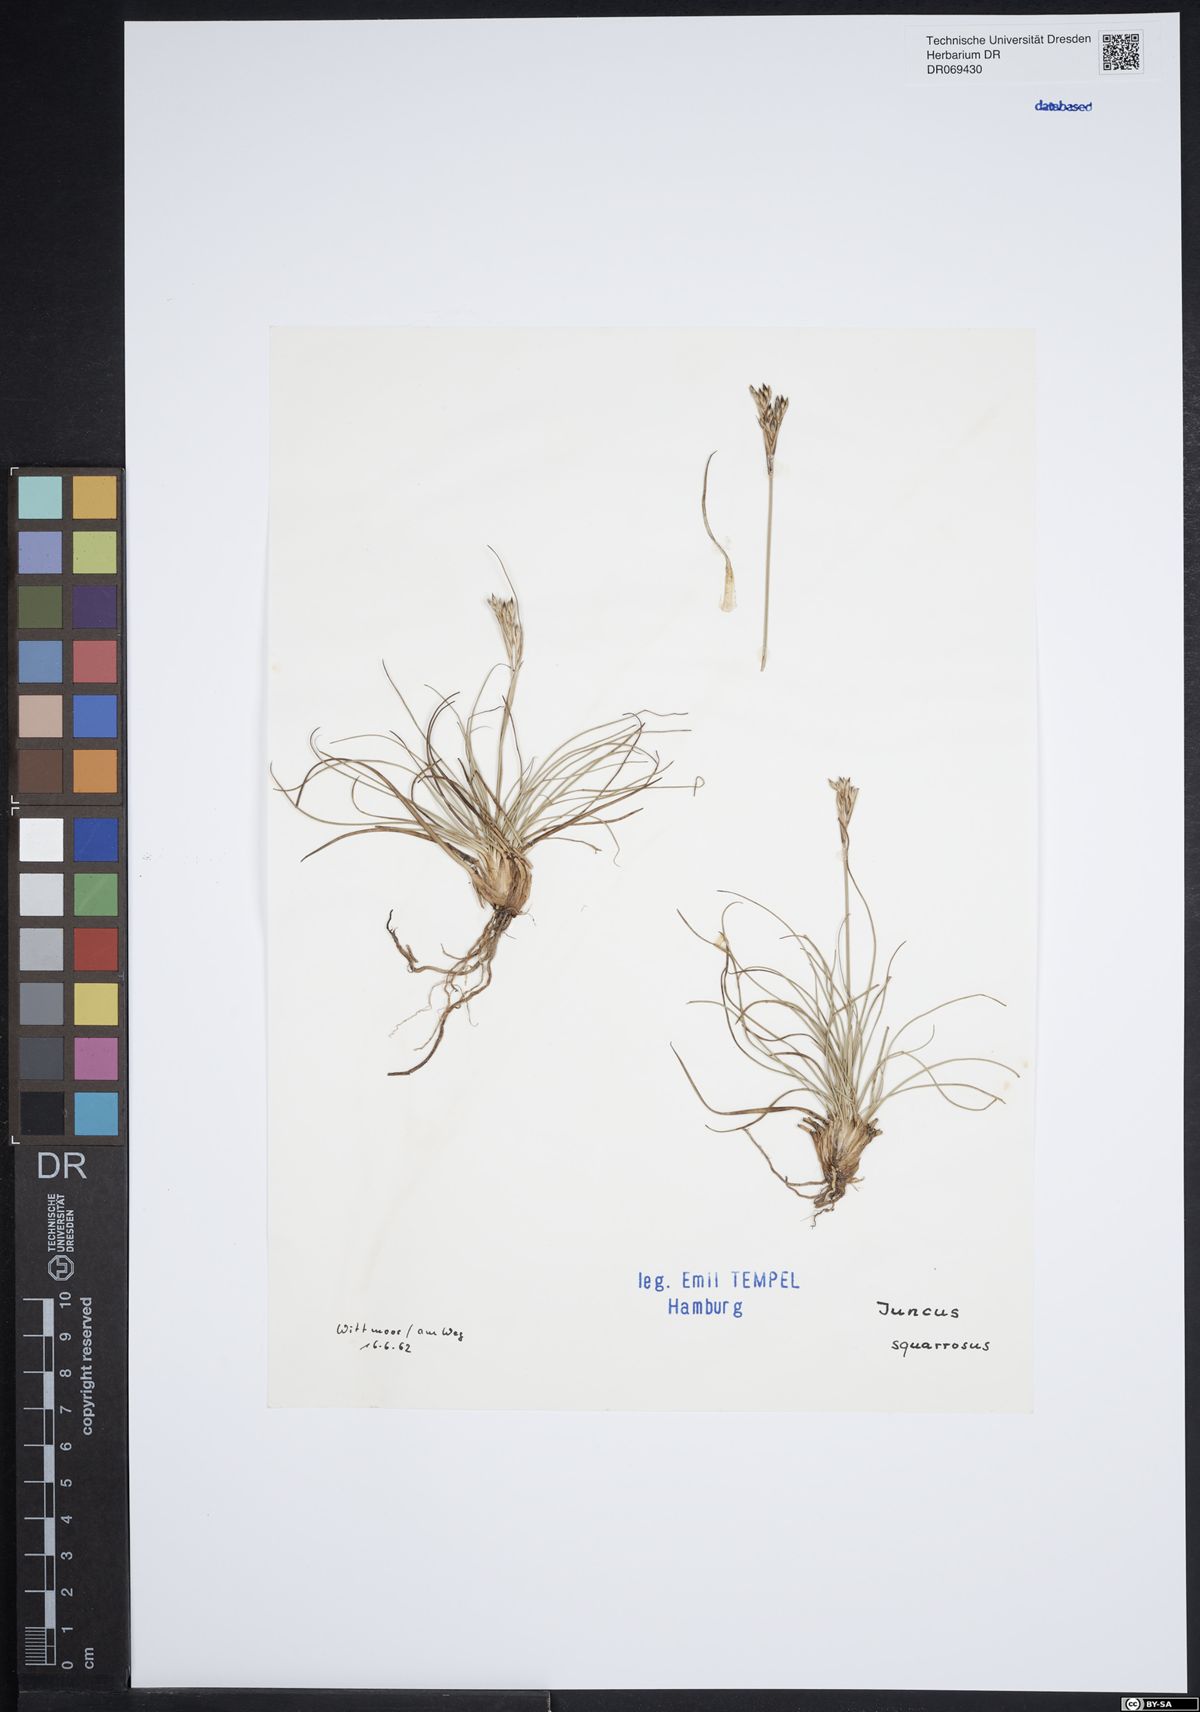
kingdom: Plantae
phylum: Tracheophyta
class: Liliopsida
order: Poales
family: Juncaceae
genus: Juncus
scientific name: Juncus squarrosus
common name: Heath rush
